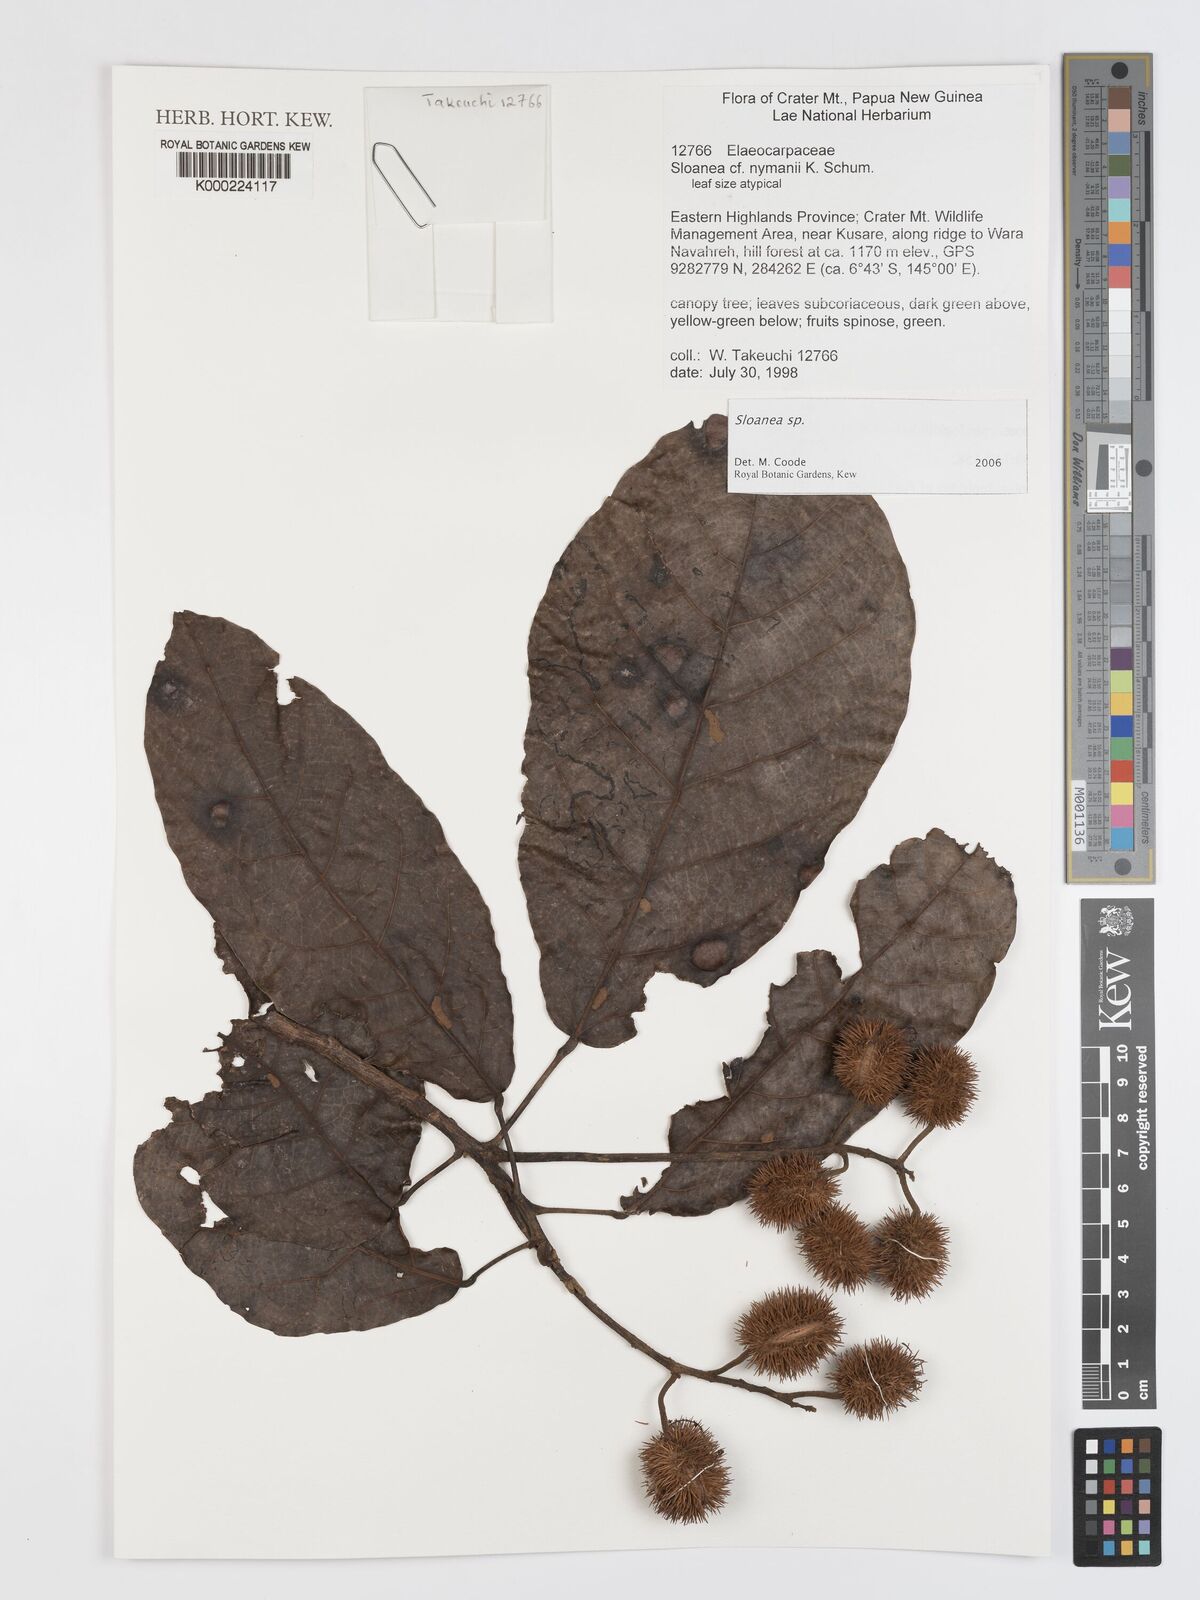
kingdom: Plantae
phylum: Tracheophyta
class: Magnoliopsida
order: Oxalidales
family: Elaeocarpaceae
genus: Sloanea
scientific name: Sloanea
